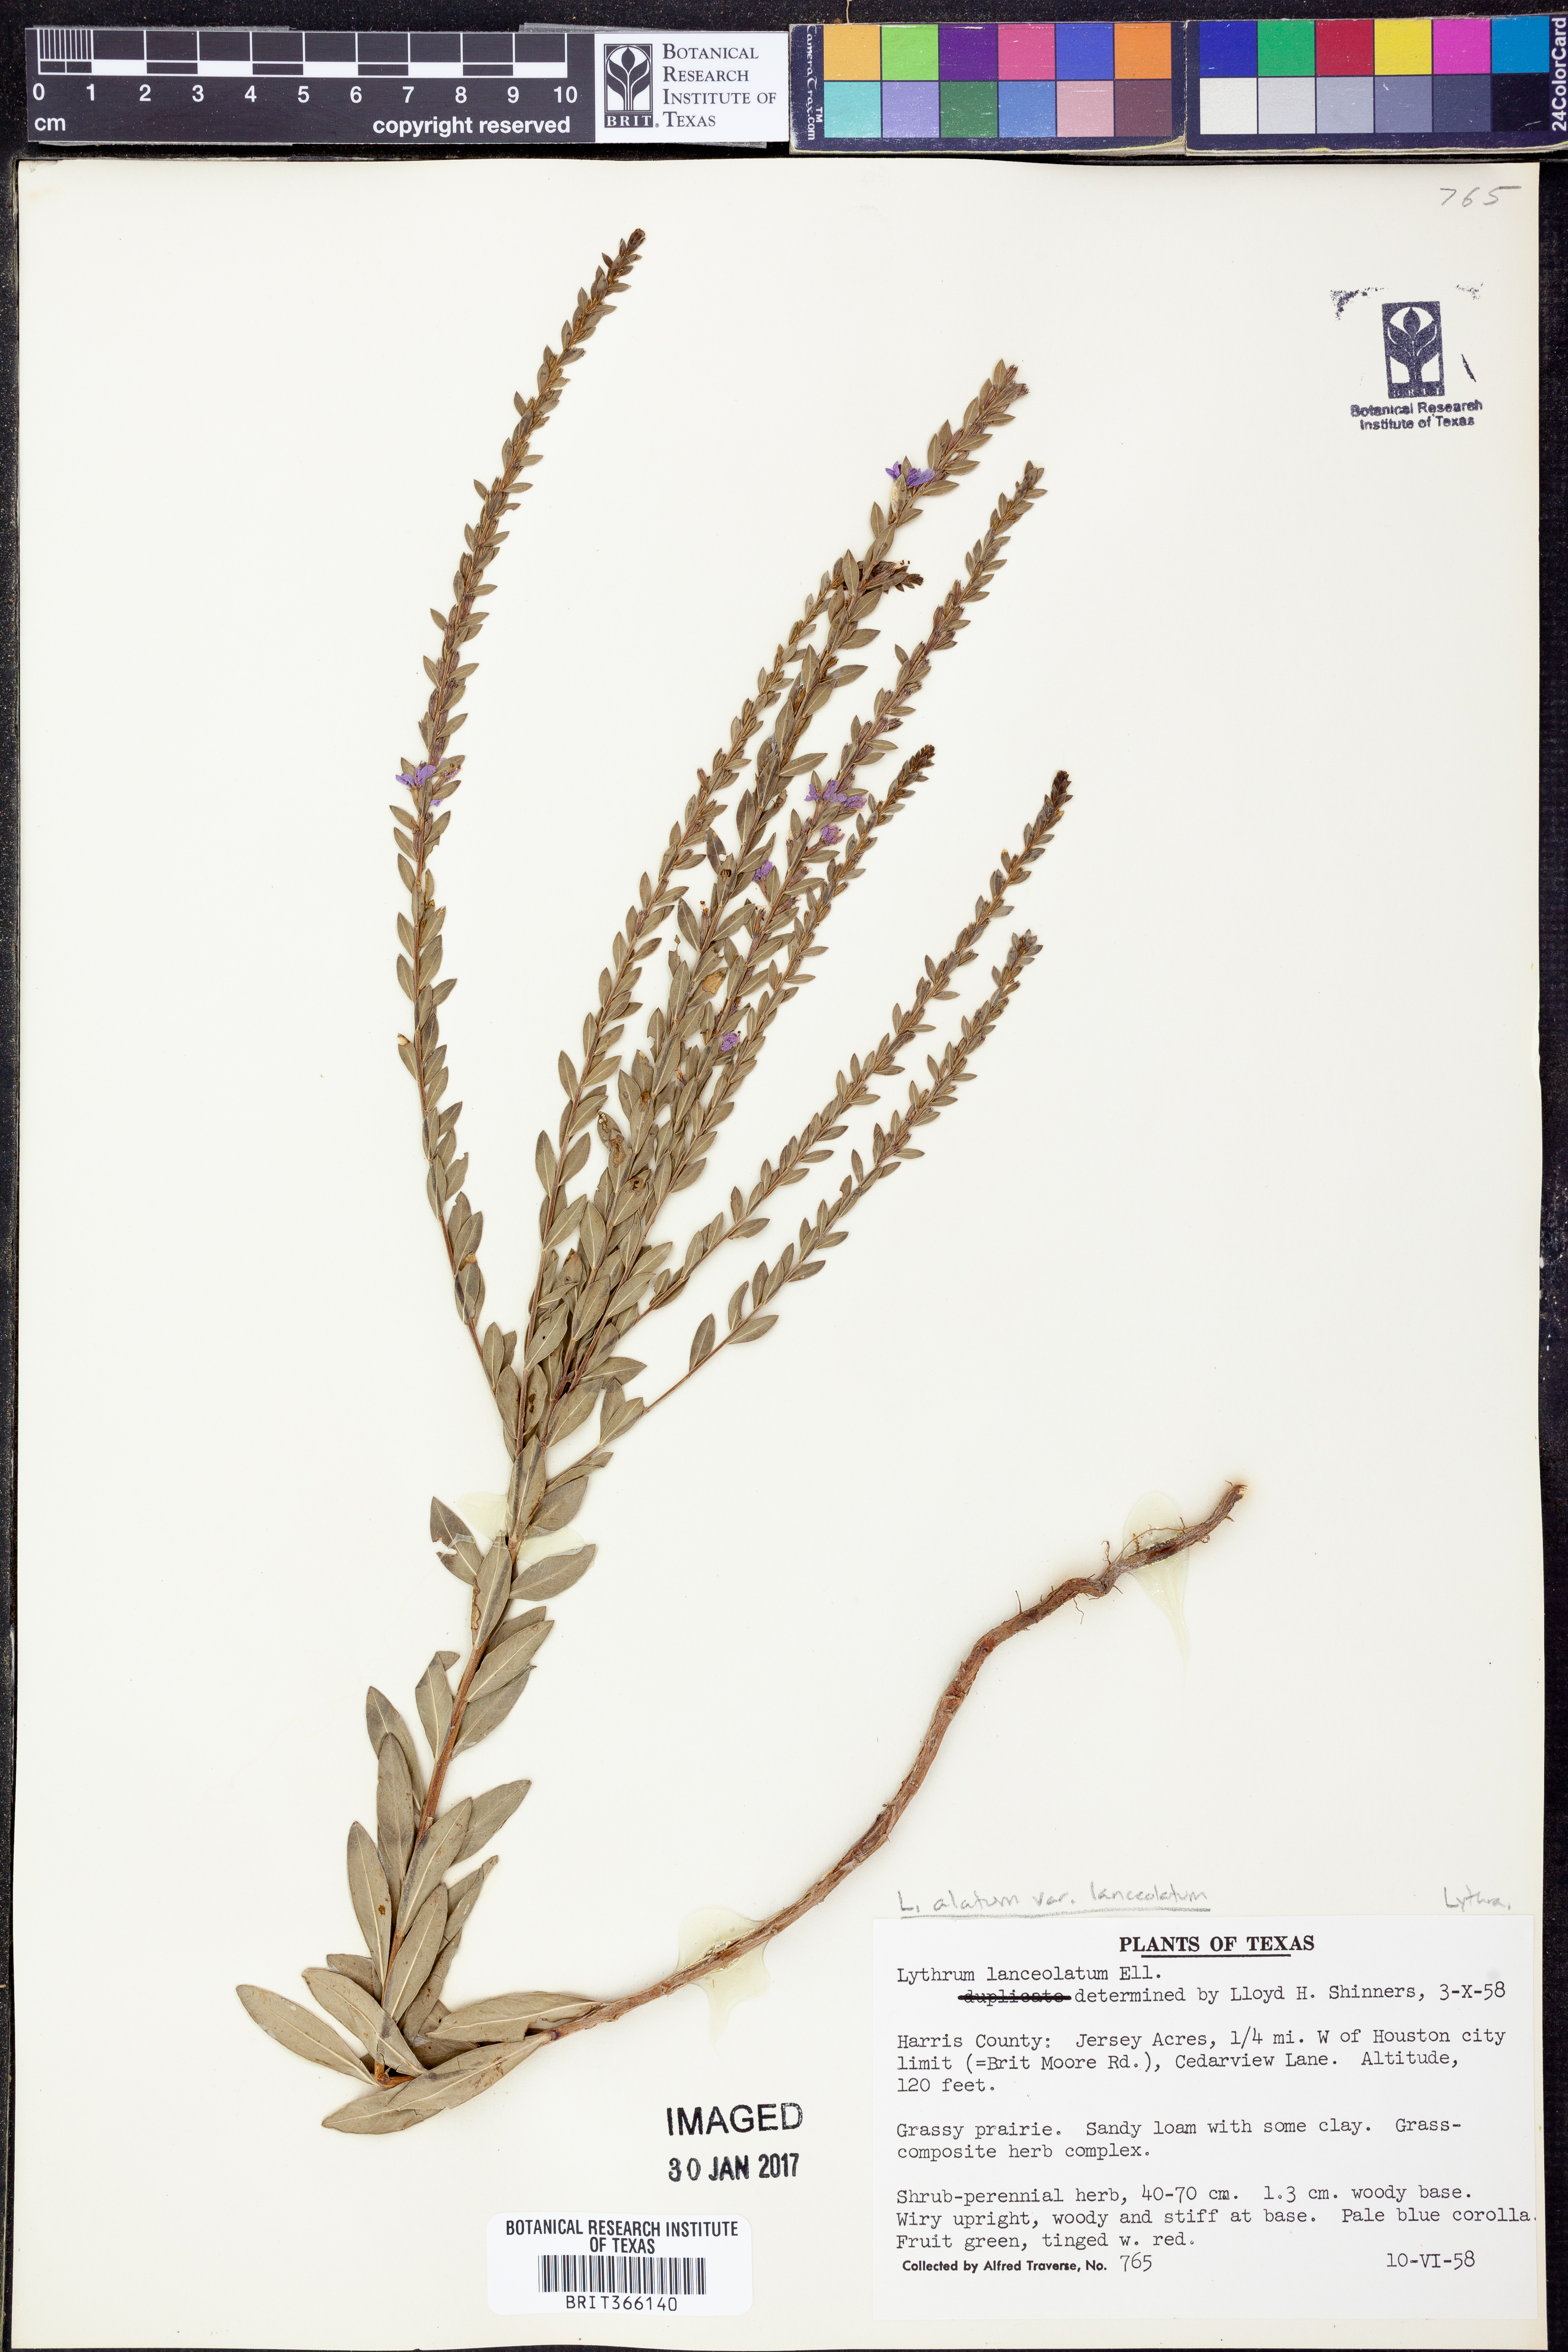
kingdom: Plantae
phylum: Tracheophyta
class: Magnoliopsida
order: Myrtales
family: Lythraceae
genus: Lythrum
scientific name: Lythrum alatum
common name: Winged loosestrife
